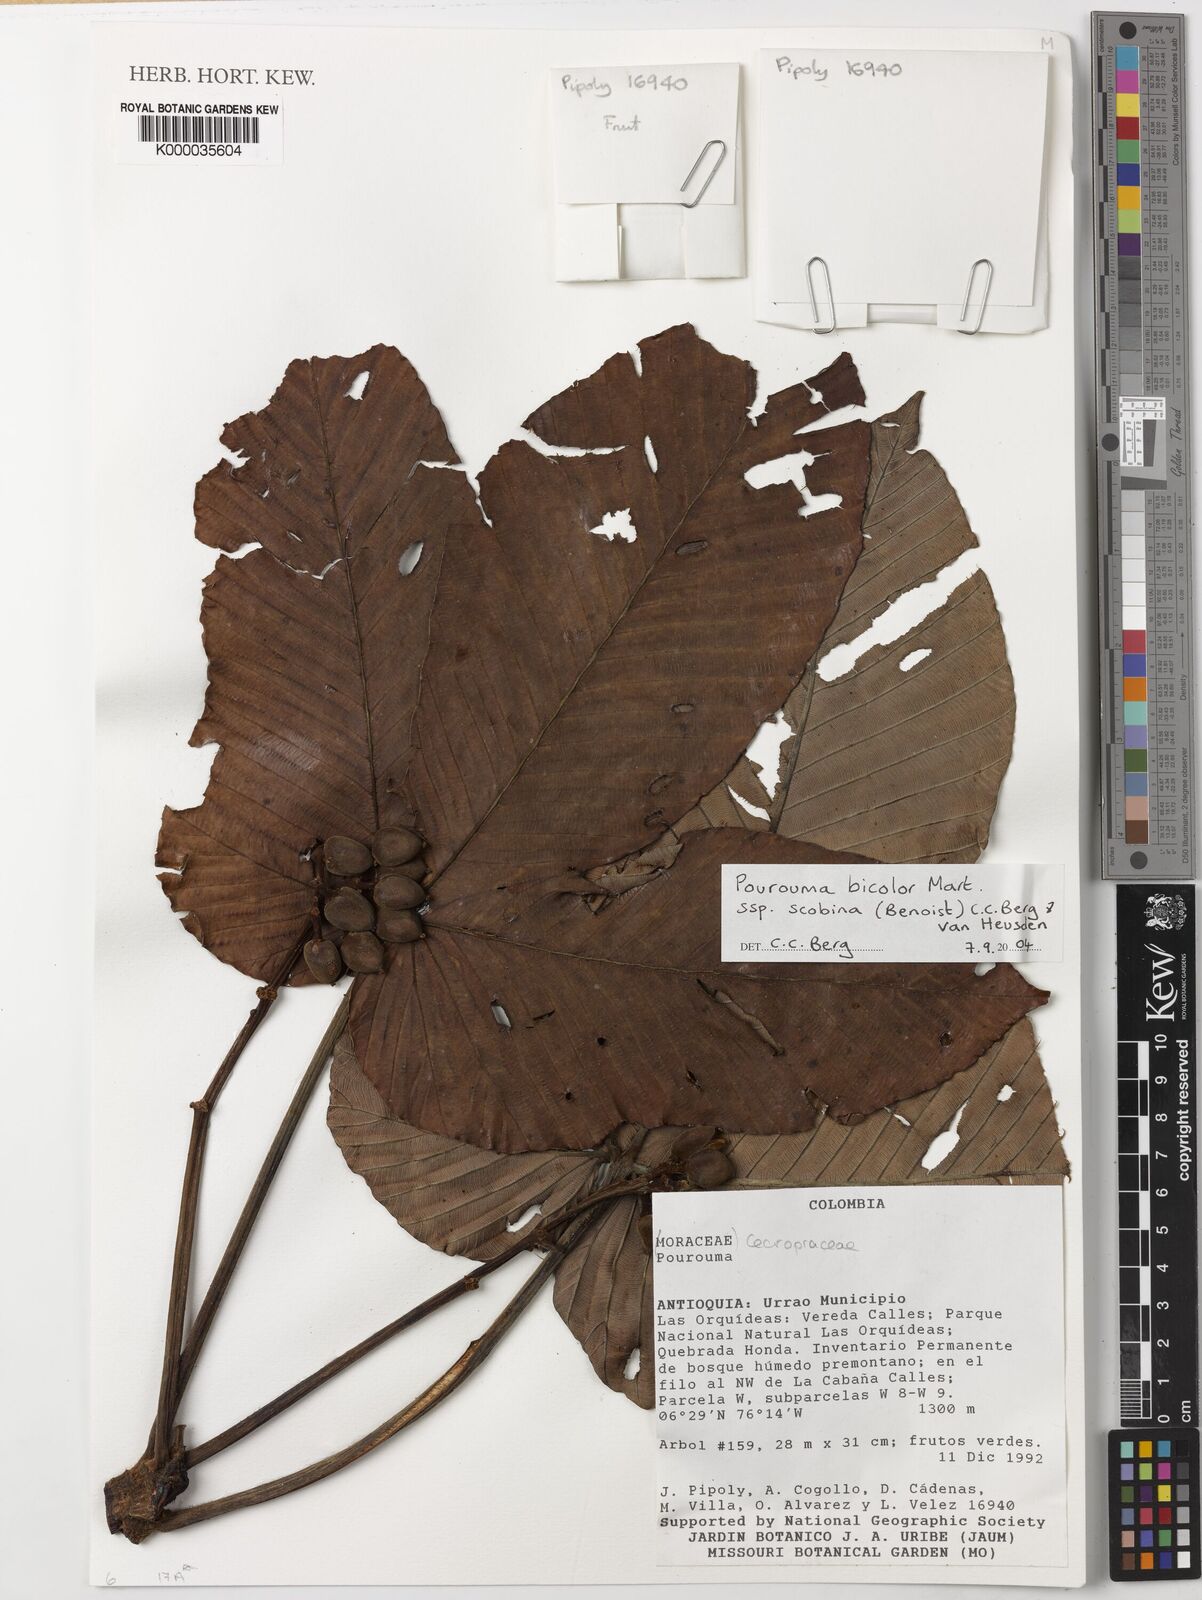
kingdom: Plantae
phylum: Tracheophyta
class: Magnoliopsida
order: Rosales
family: Urticaceae
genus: Pourouma
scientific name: Pourouma bicolor
